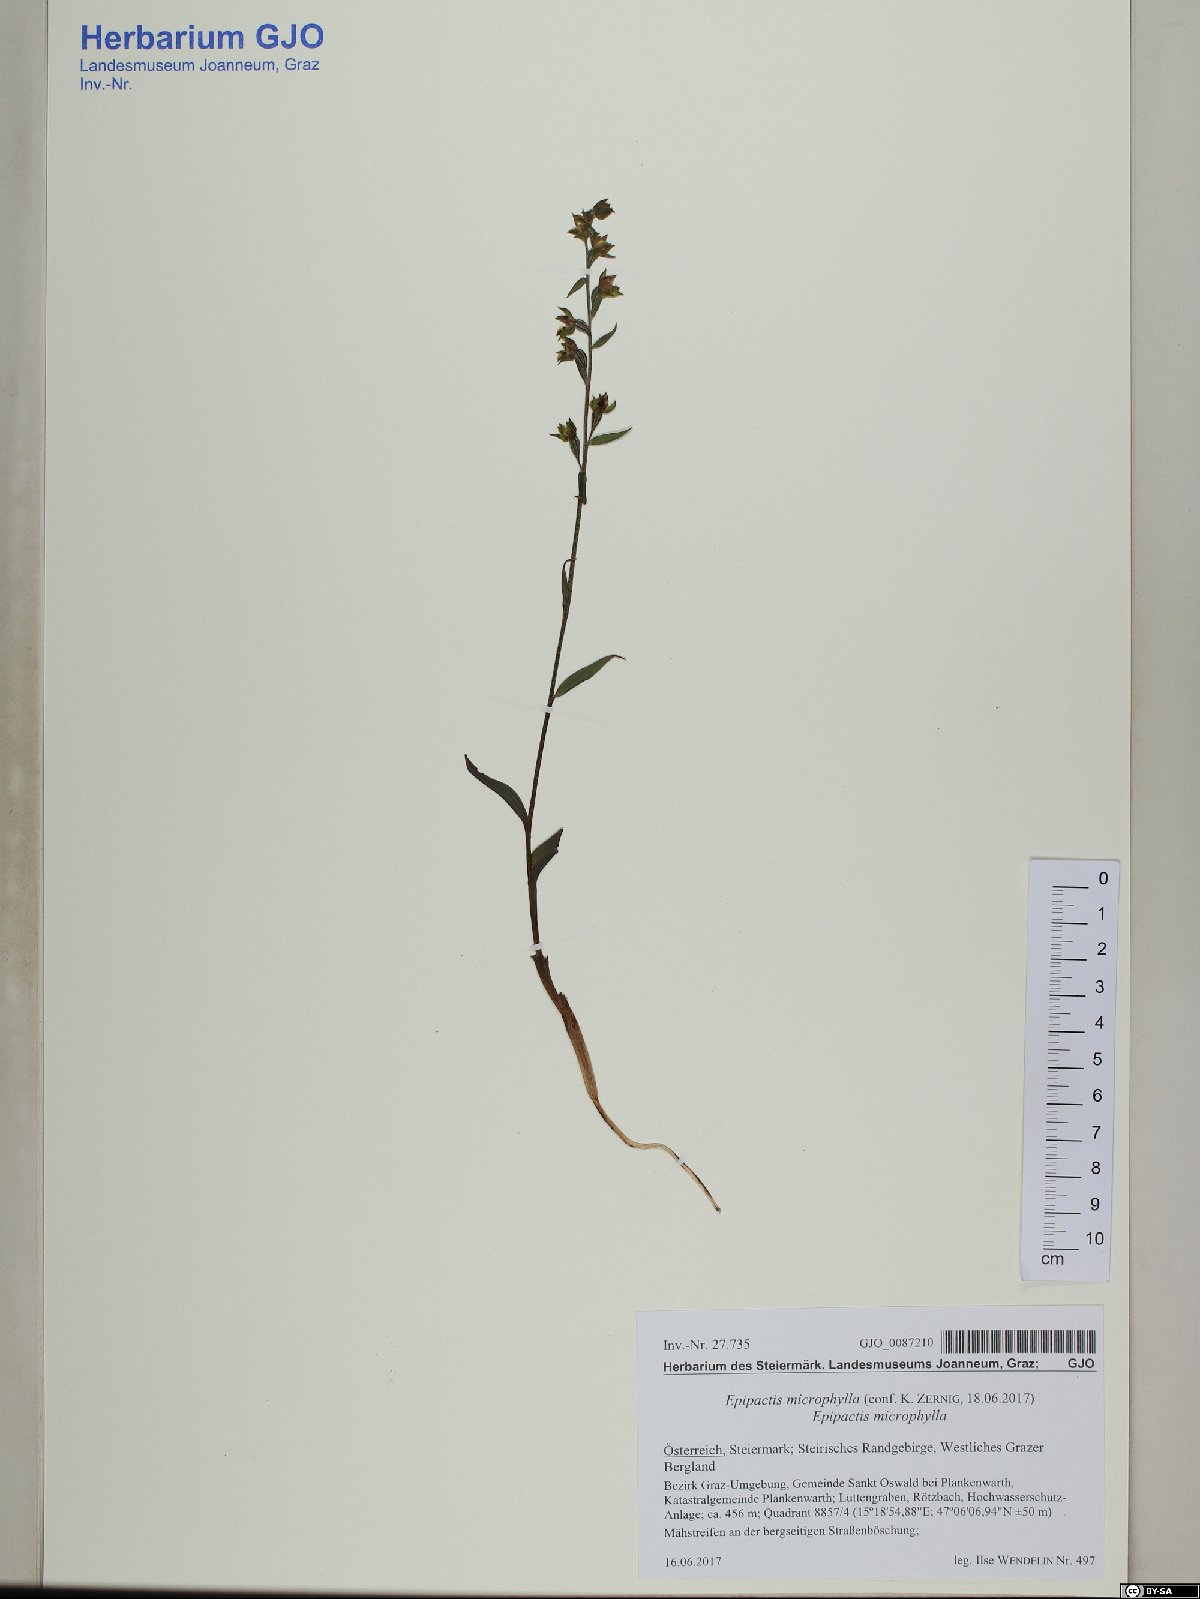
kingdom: Plantae
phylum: Tracheophyta
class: Liliopsida
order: Asparagales
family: Orchidaceae
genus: Epipactis
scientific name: Epipactis microphylla
